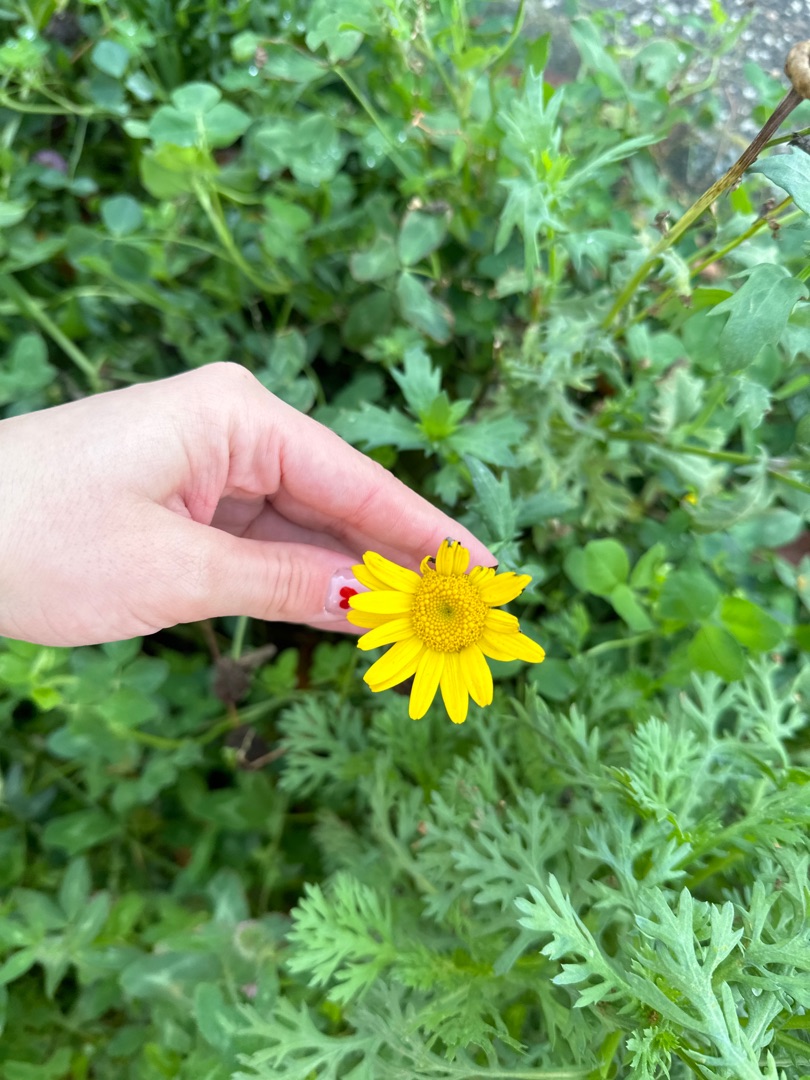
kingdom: Plantae
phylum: Tracheophyta
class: Magnoliopsida
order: Asterales
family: Asteraceae
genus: Glebionis
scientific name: Glebionis segetum
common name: Gul okseøje
